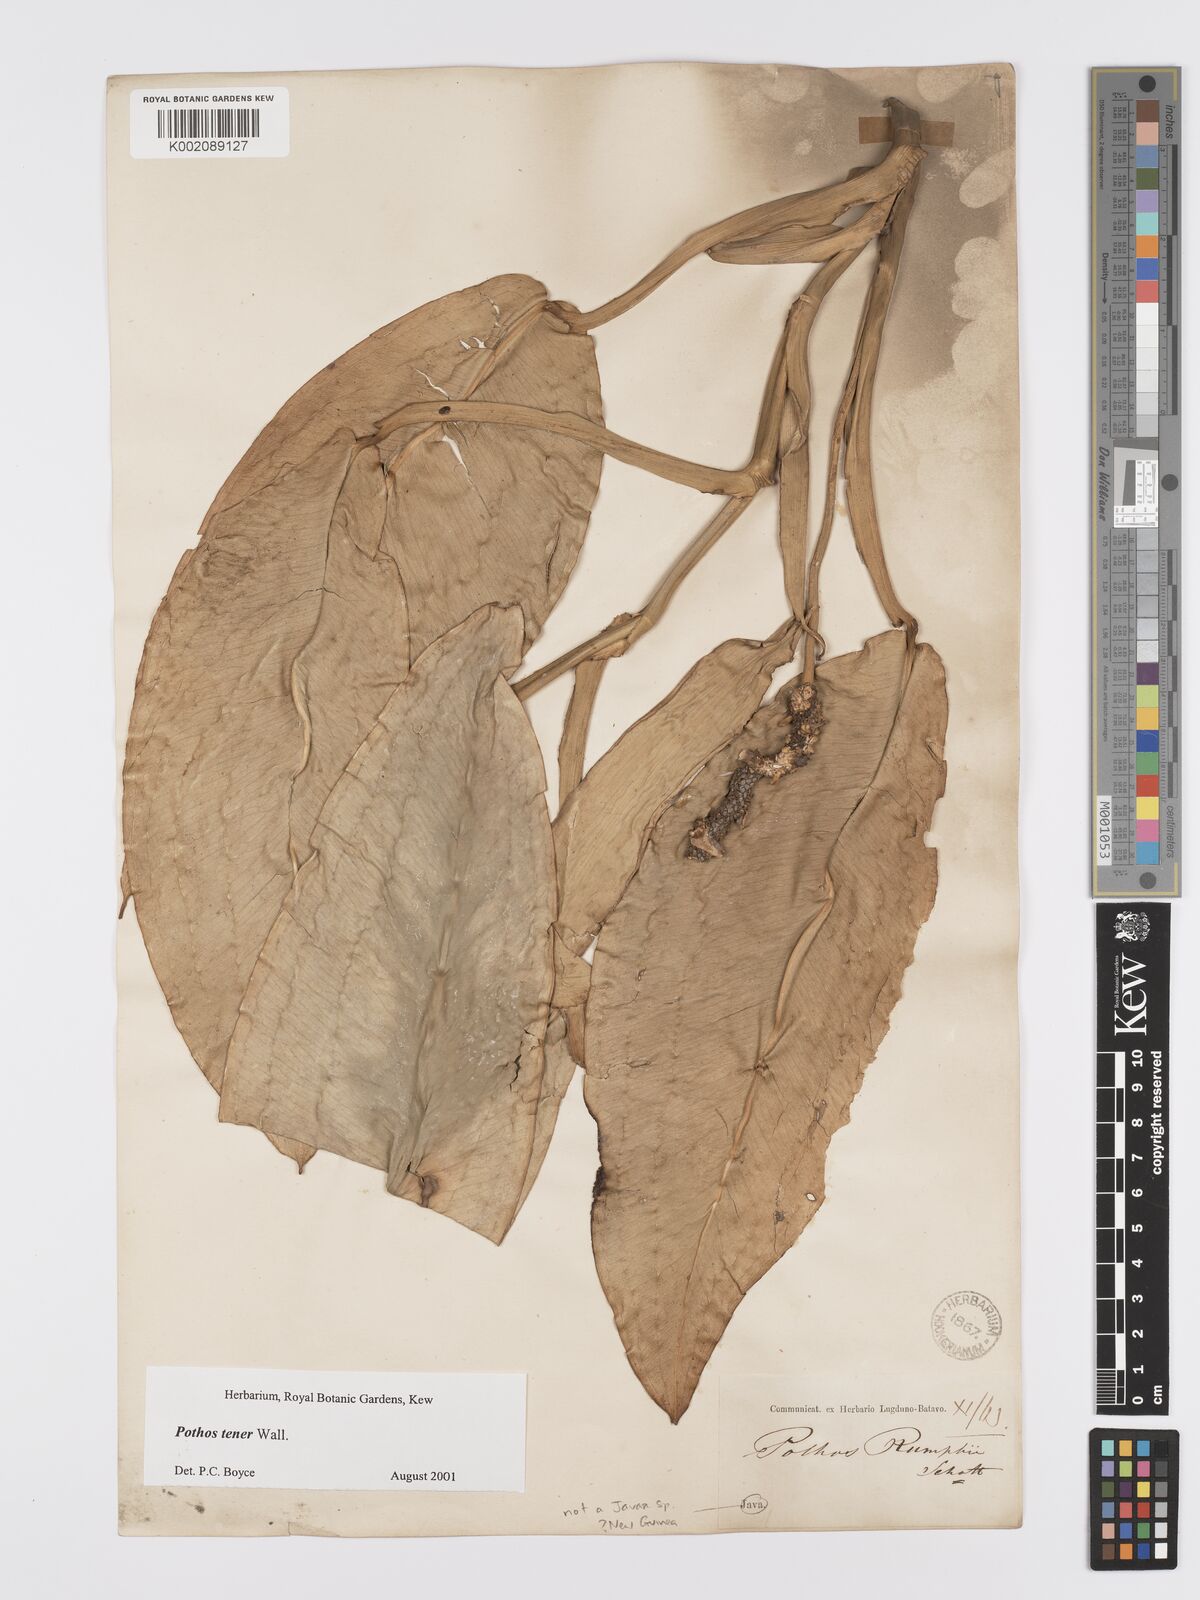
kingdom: Plantae
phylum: Tracheophyta
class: Liliopsida
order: Alismatales
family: Araceae
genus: Pothos
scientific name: Pothos tener
